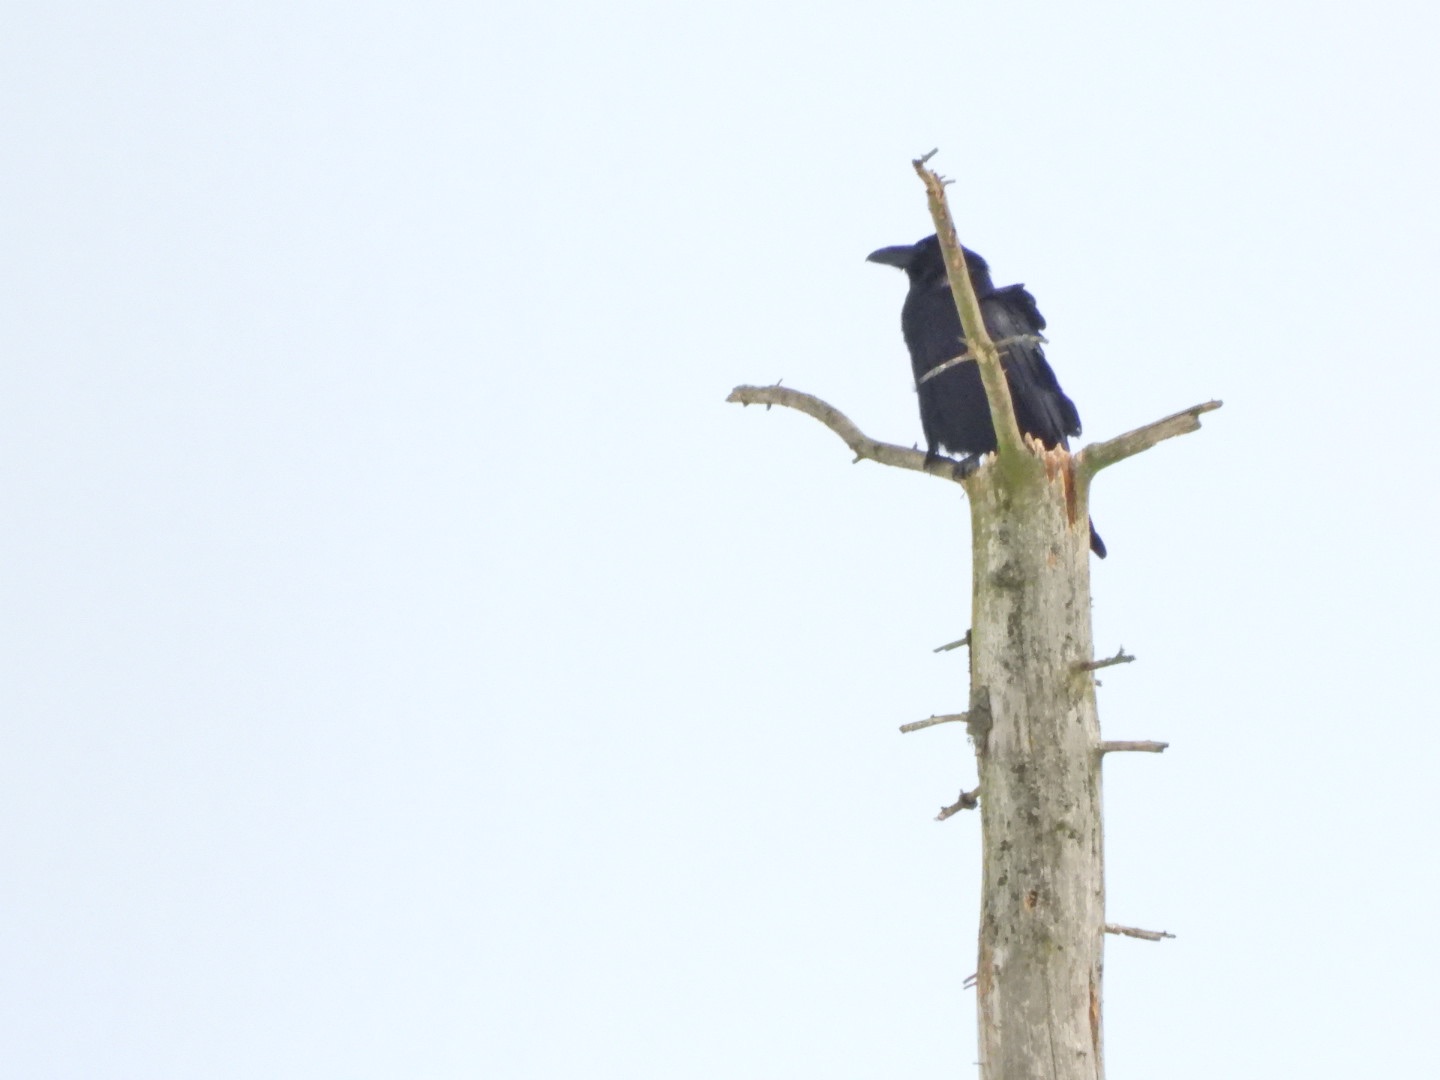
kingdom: Animalia
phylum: Chordata
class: Aves
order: Passeriformes
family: Corvidae
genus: Corvus
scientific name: Corvus corax
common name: Ravn
